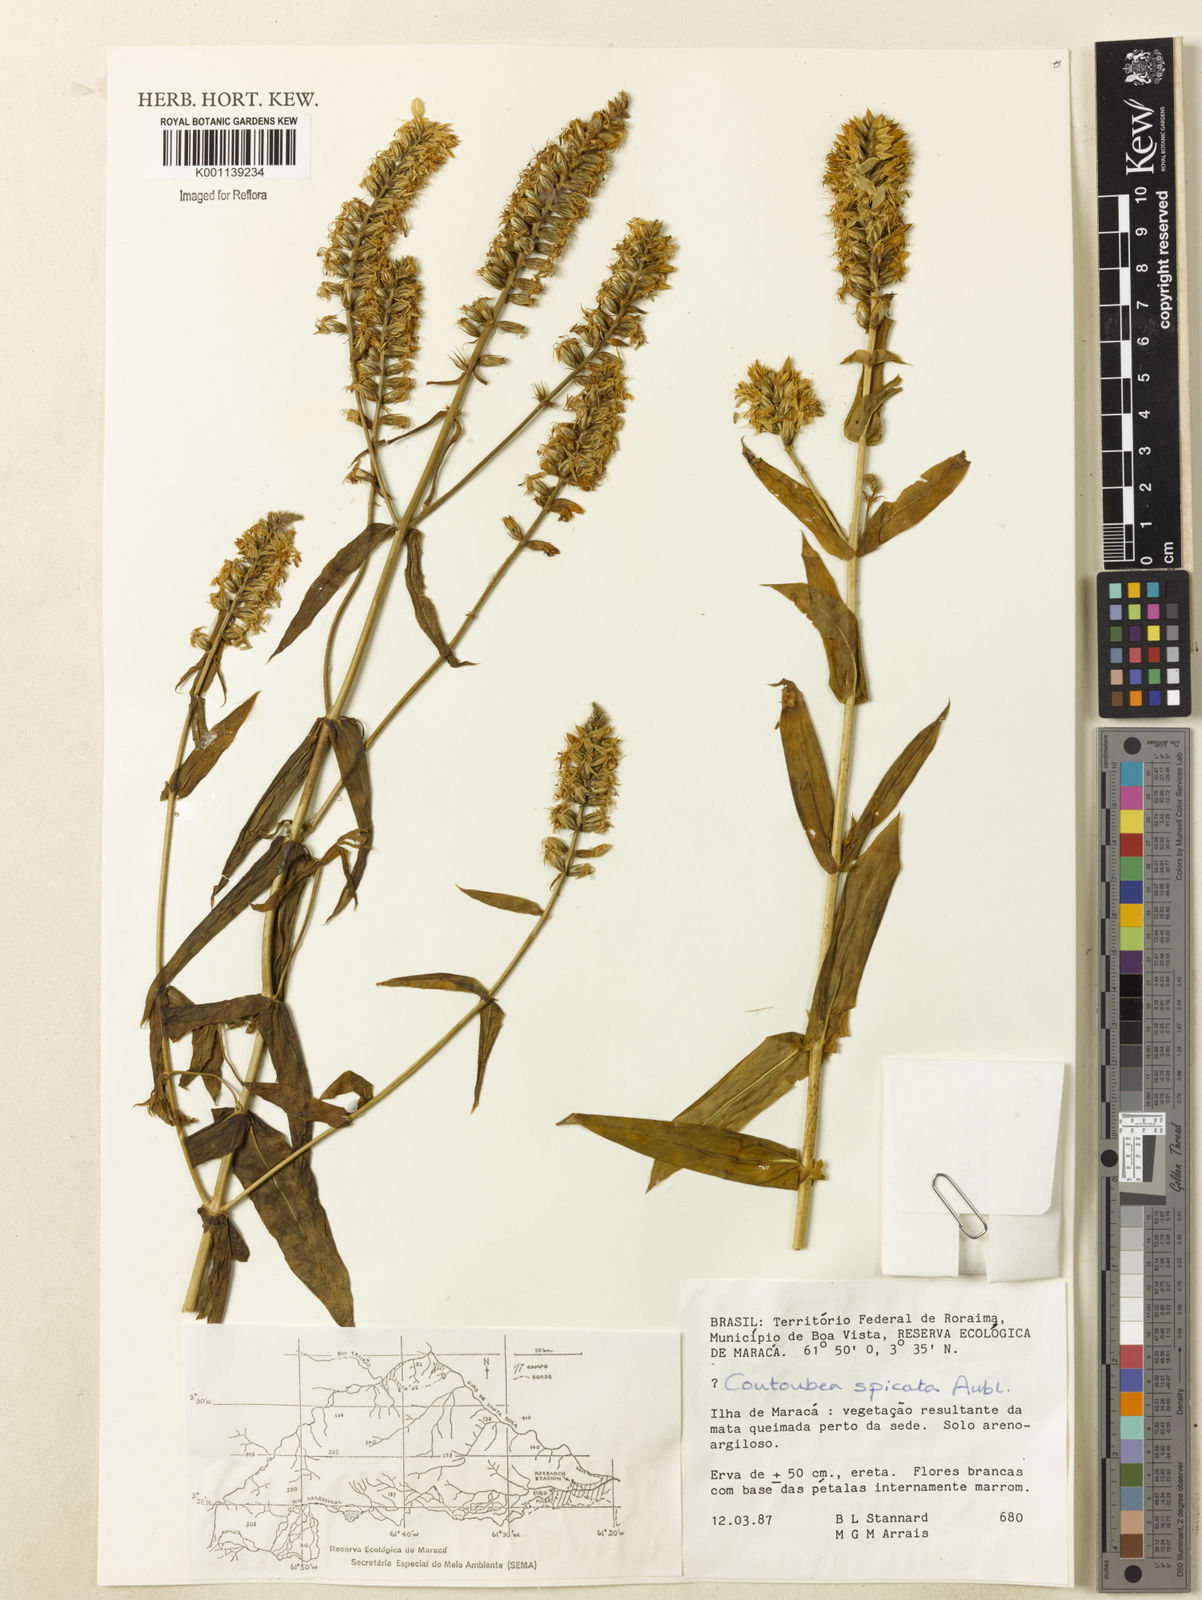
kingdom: Plantae
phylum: Tracheophyta
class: Magnoliopsida
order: Gentianales
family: Gentianaceae
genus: Coutoubea
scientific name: Coutoubea spicata
